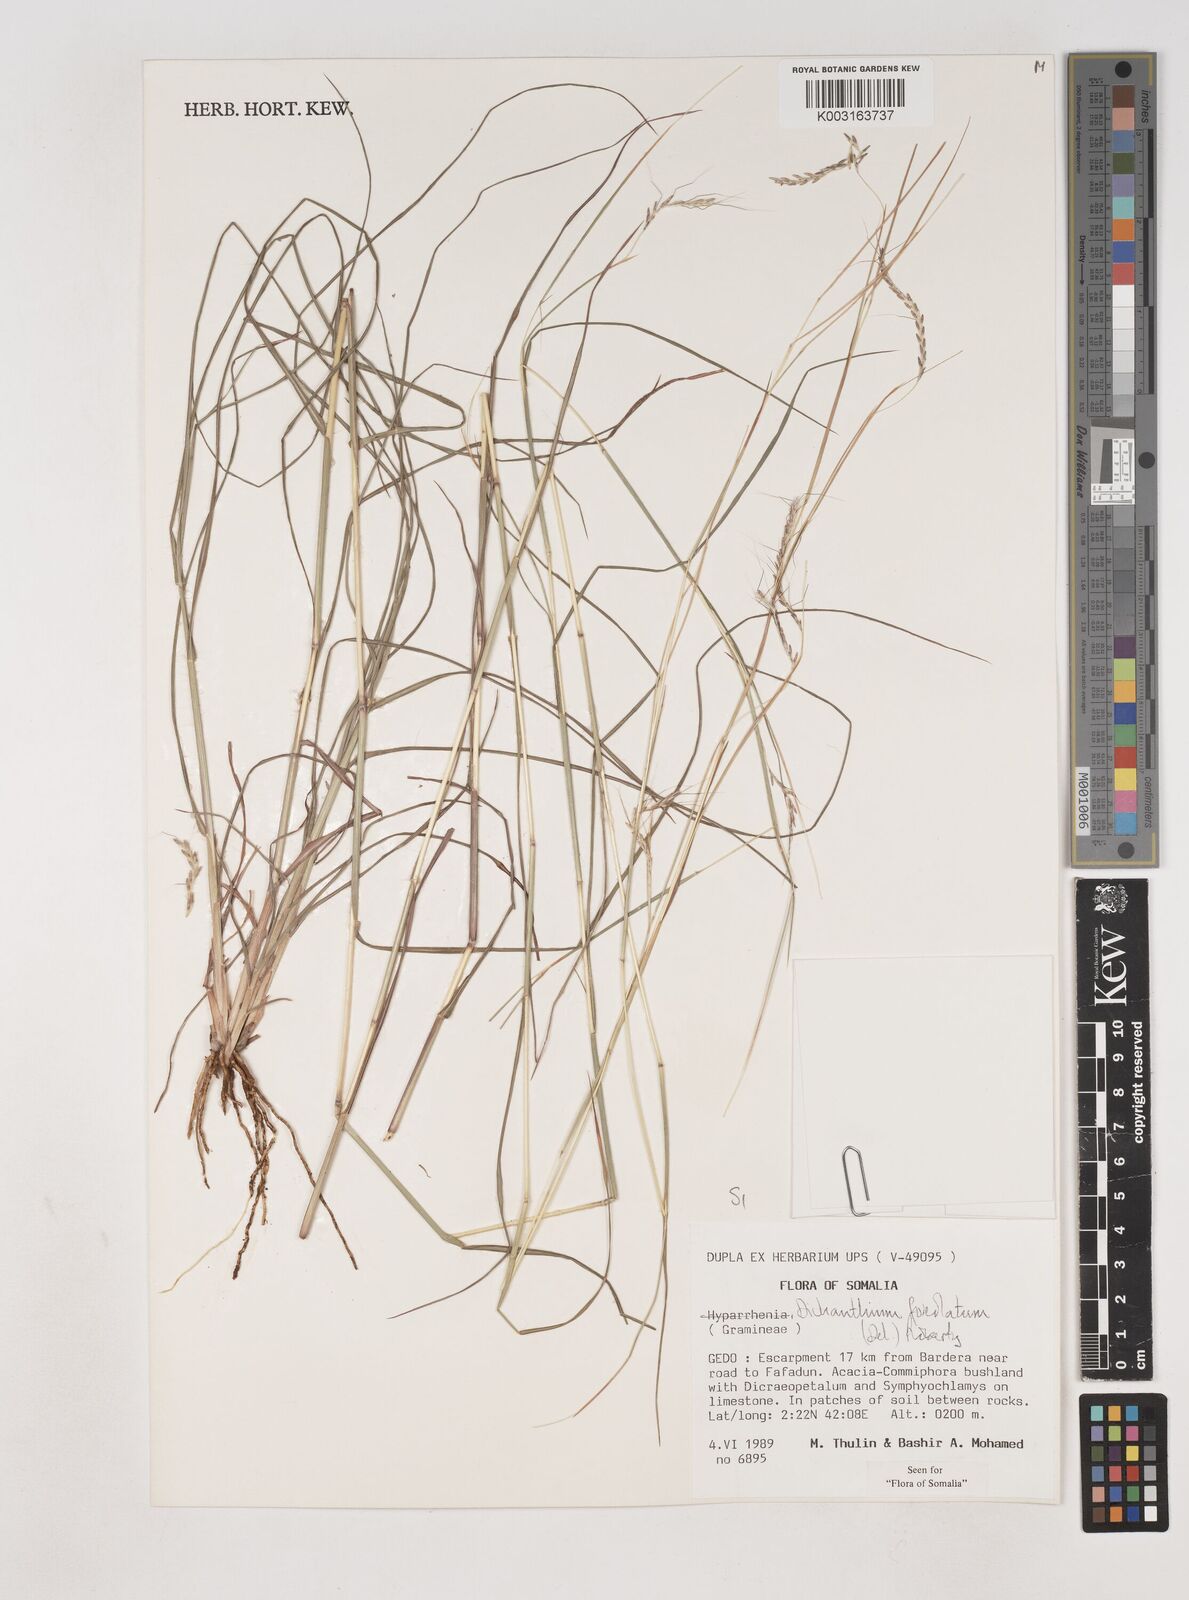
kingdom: Plantae
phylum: Tracheophyta
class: Liliopsida
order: Poales
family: Poaceae
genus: Dichanthium
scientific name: Dichanthium foveolatum
